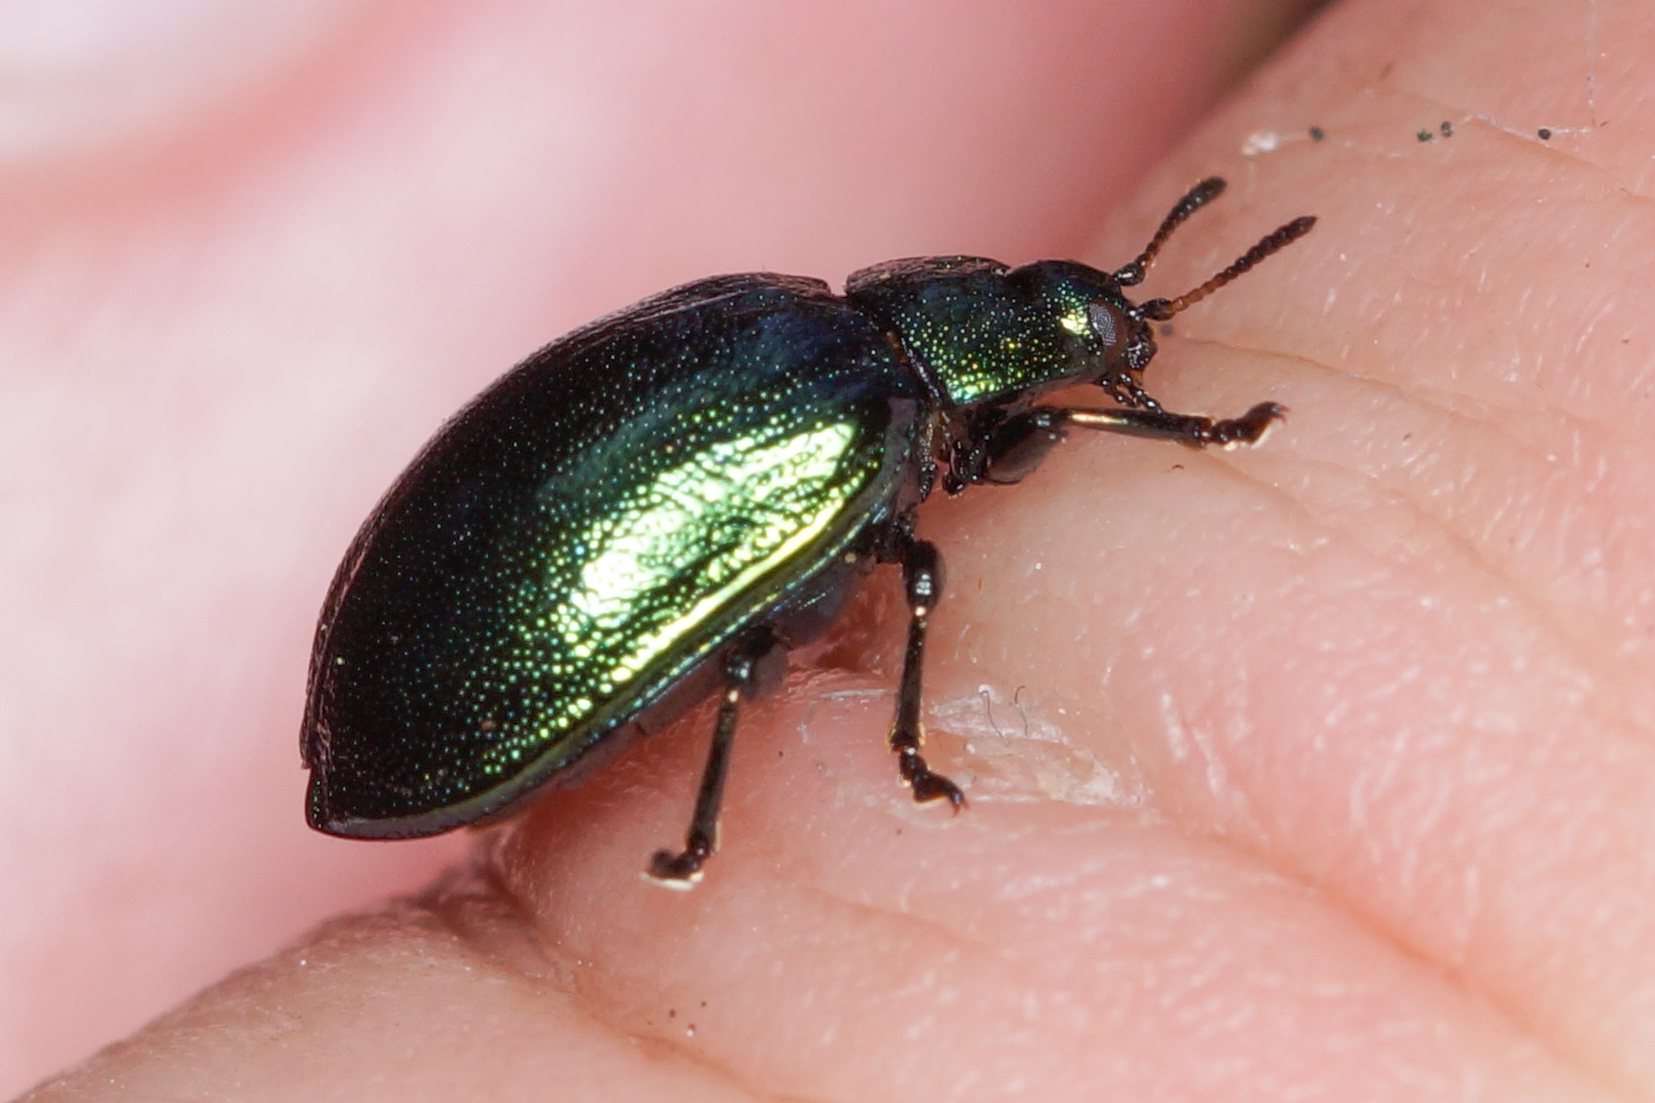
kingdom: Animalia
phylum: Arthropoda
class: Insecta
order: Coleoptera
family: Chrysomelidae
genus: Plagiosterna
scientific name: Plagiosterna aenea
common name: Blågrøn ellebladbille
